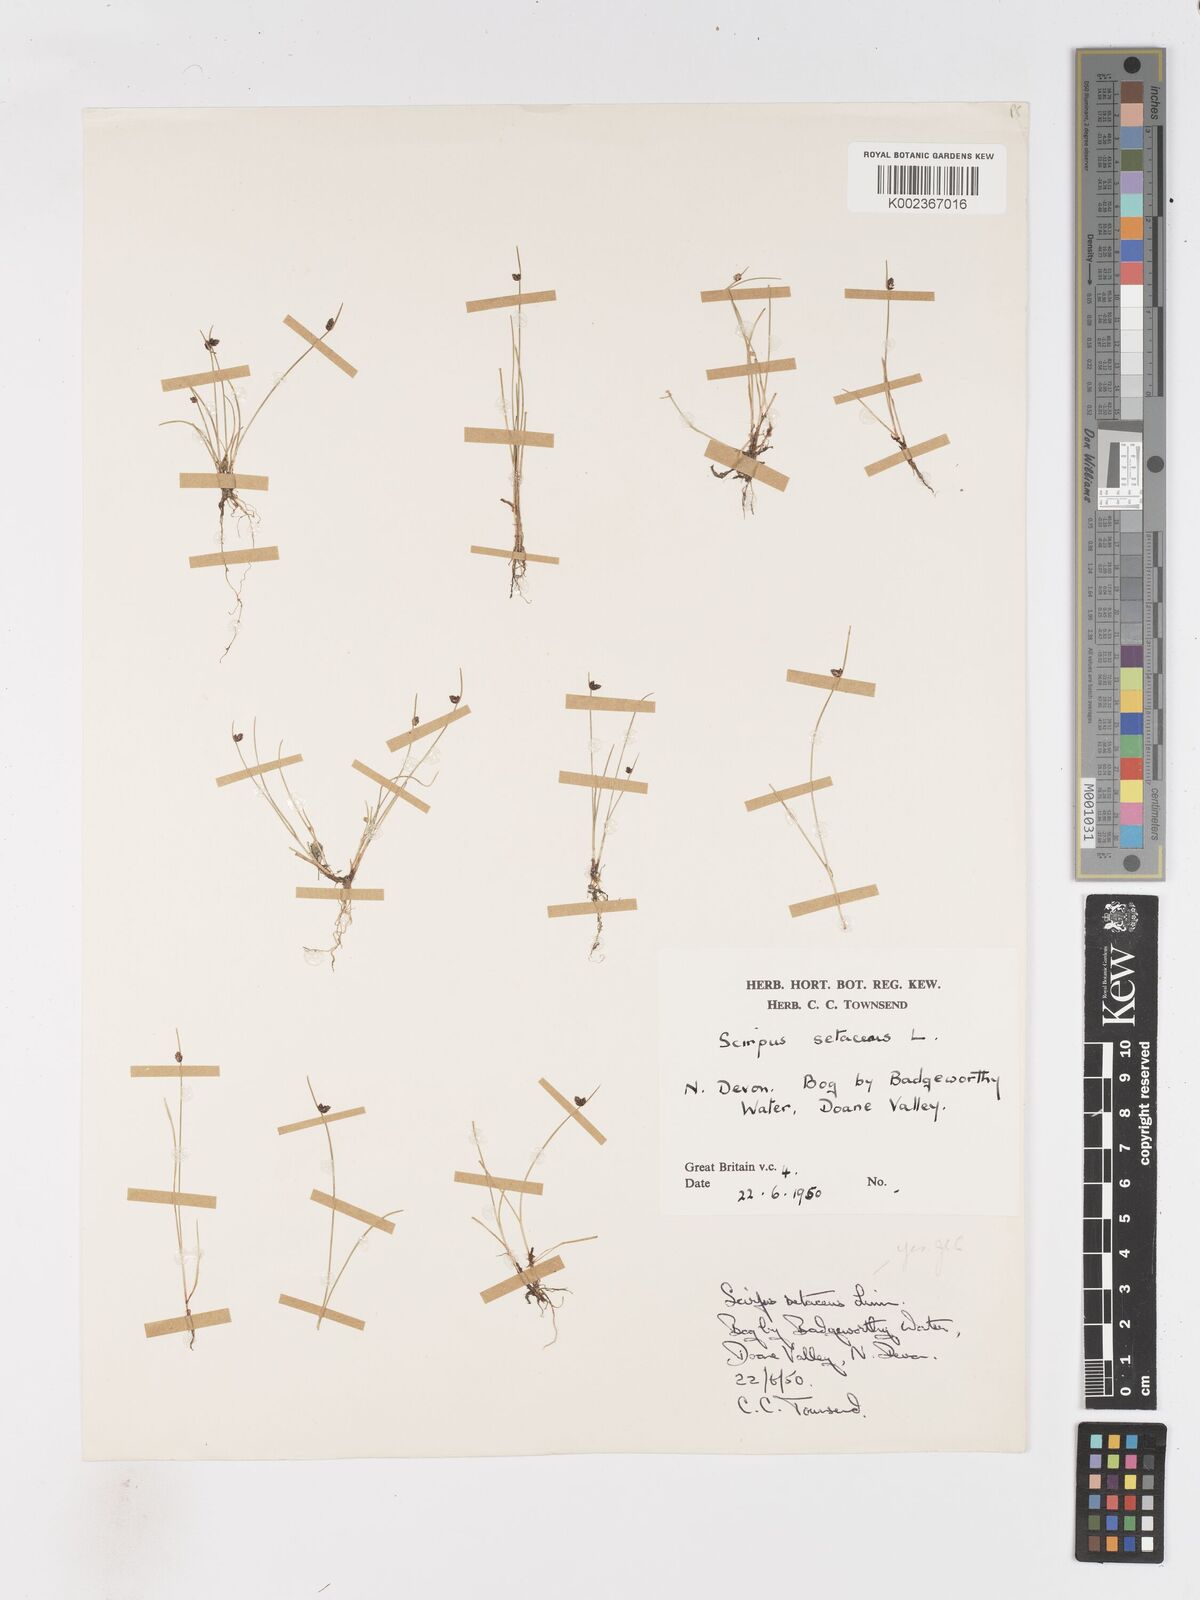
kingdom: Plantae
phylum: Tracheophyta
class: Liliopsida
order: Poales
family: Cyperaceae
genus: Isolepis
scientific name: Isolepis setacea
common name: Bristle club-rush
